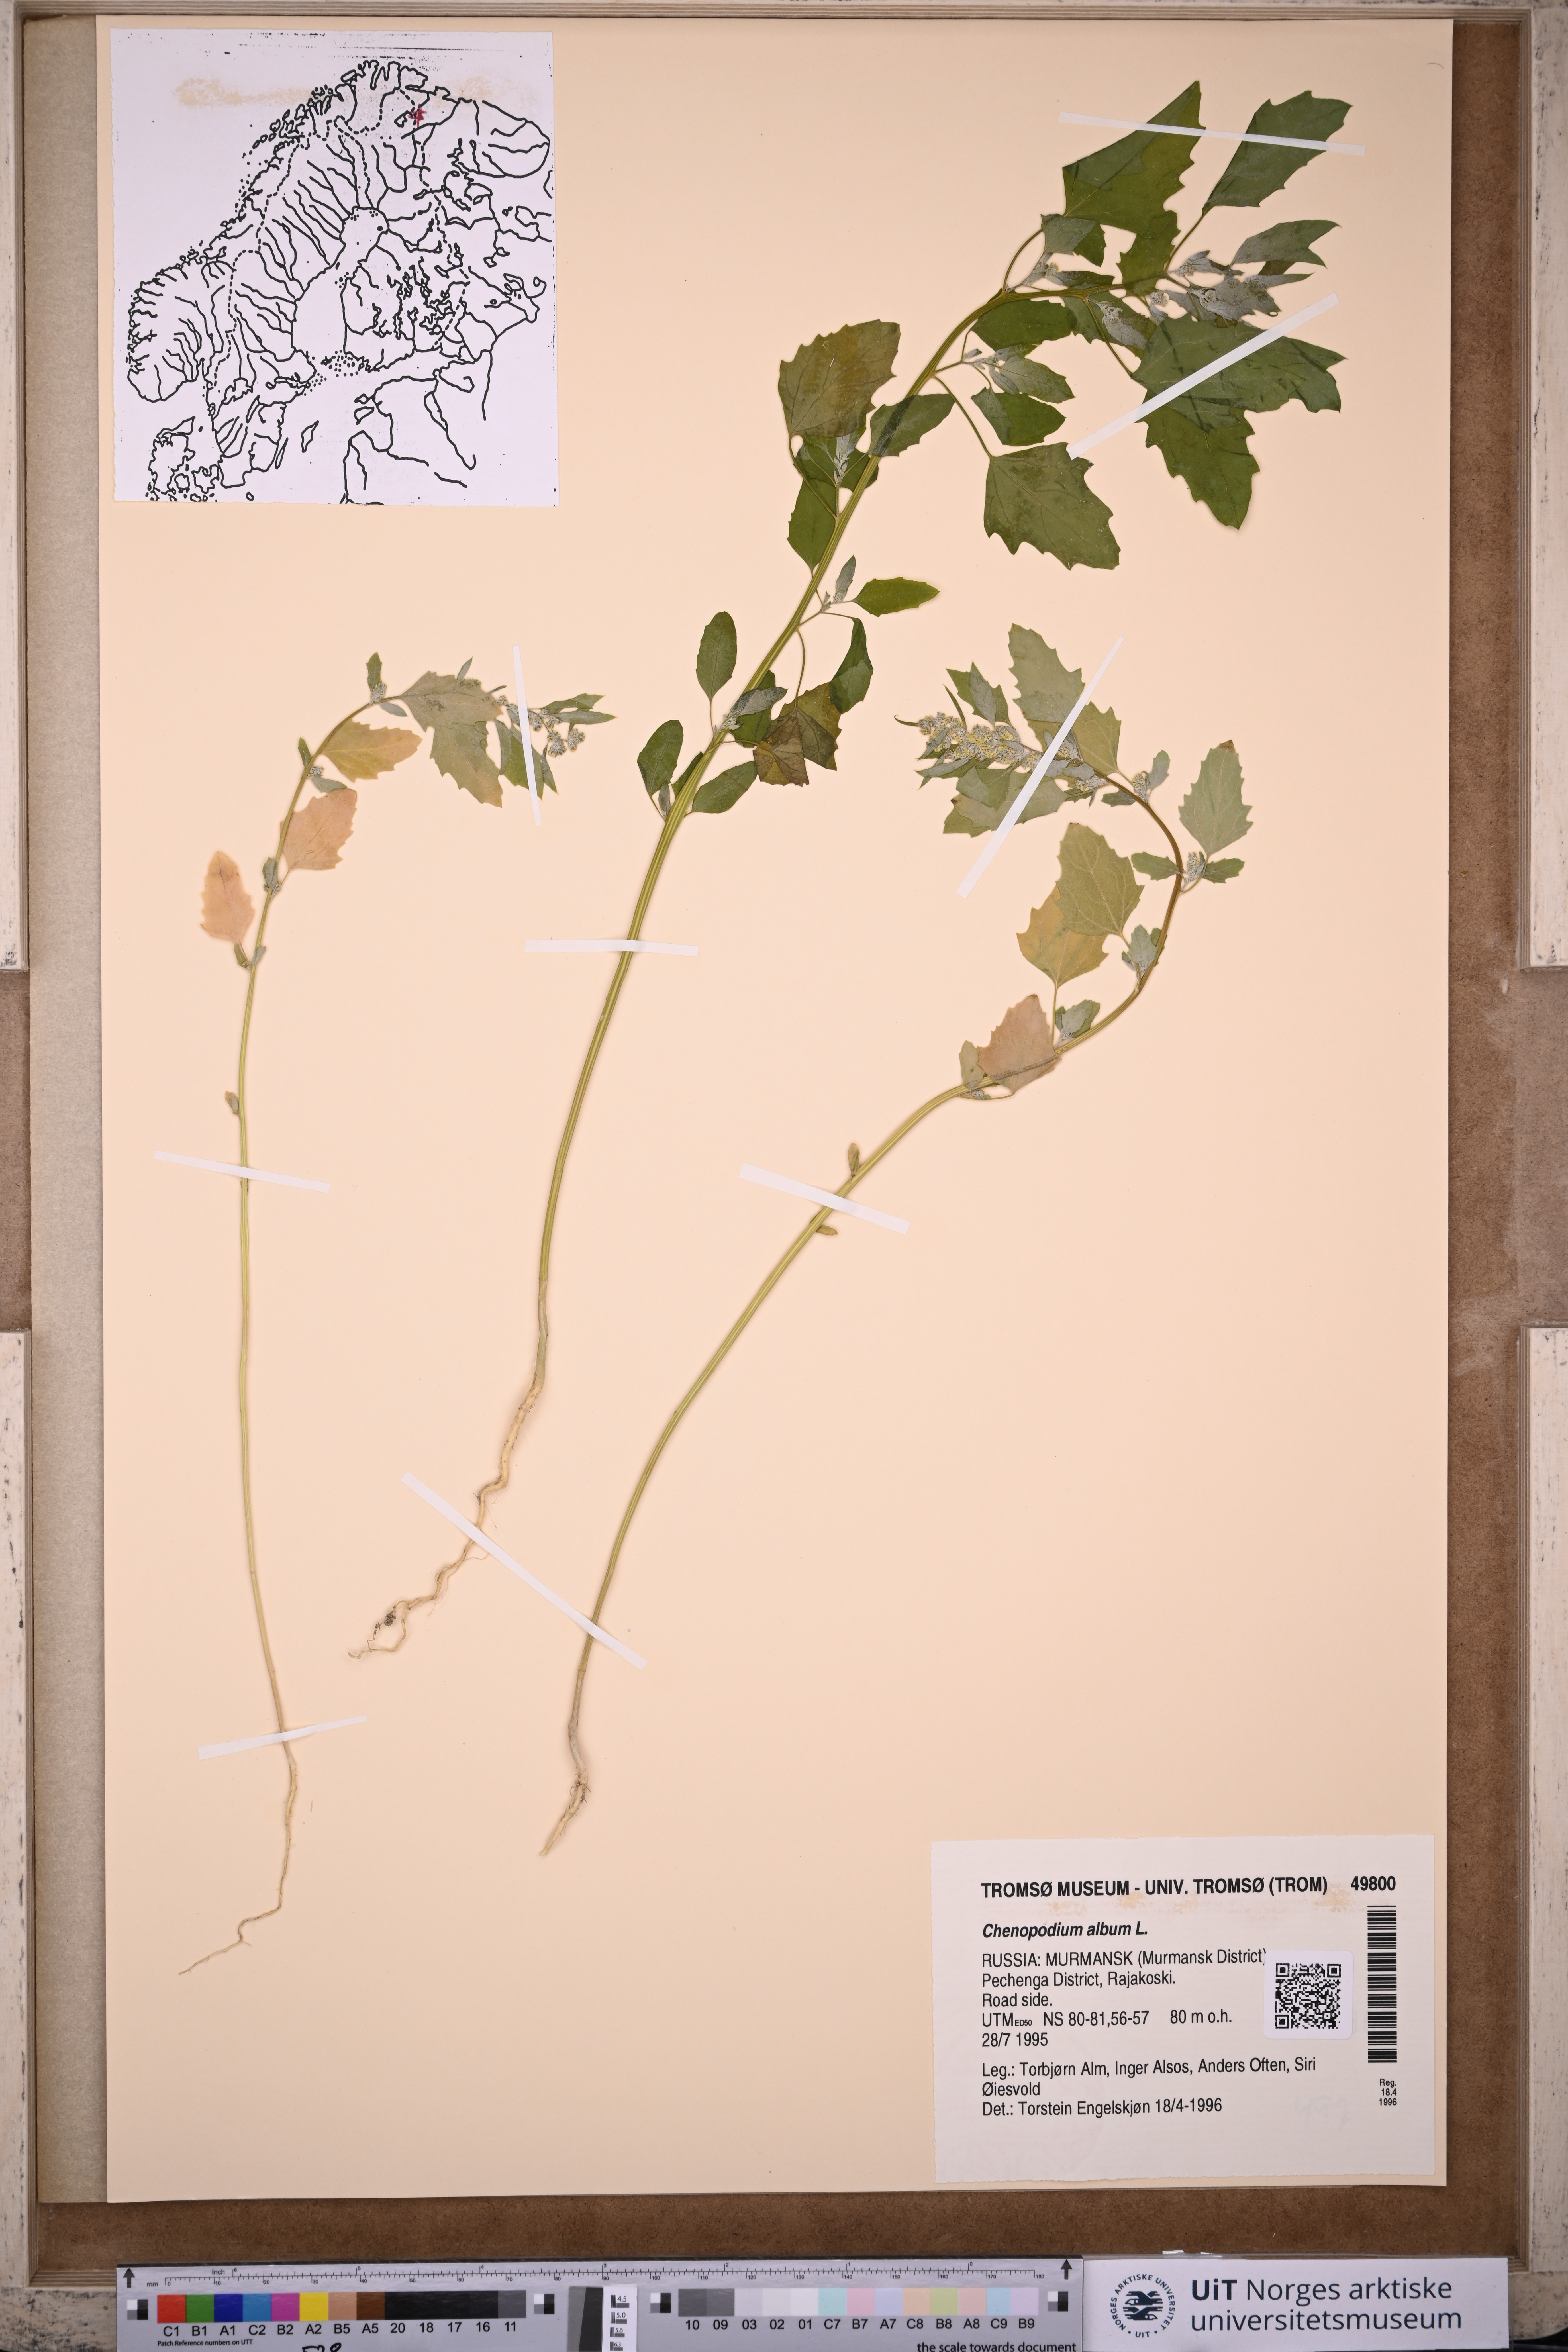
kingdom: Plantae
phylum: Tracheophyta
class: Magnoliopsida
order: Caryophyllales
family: Amaranthaceae
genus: Chenopodium
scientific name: Chenopodium album
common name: Fat-hen
